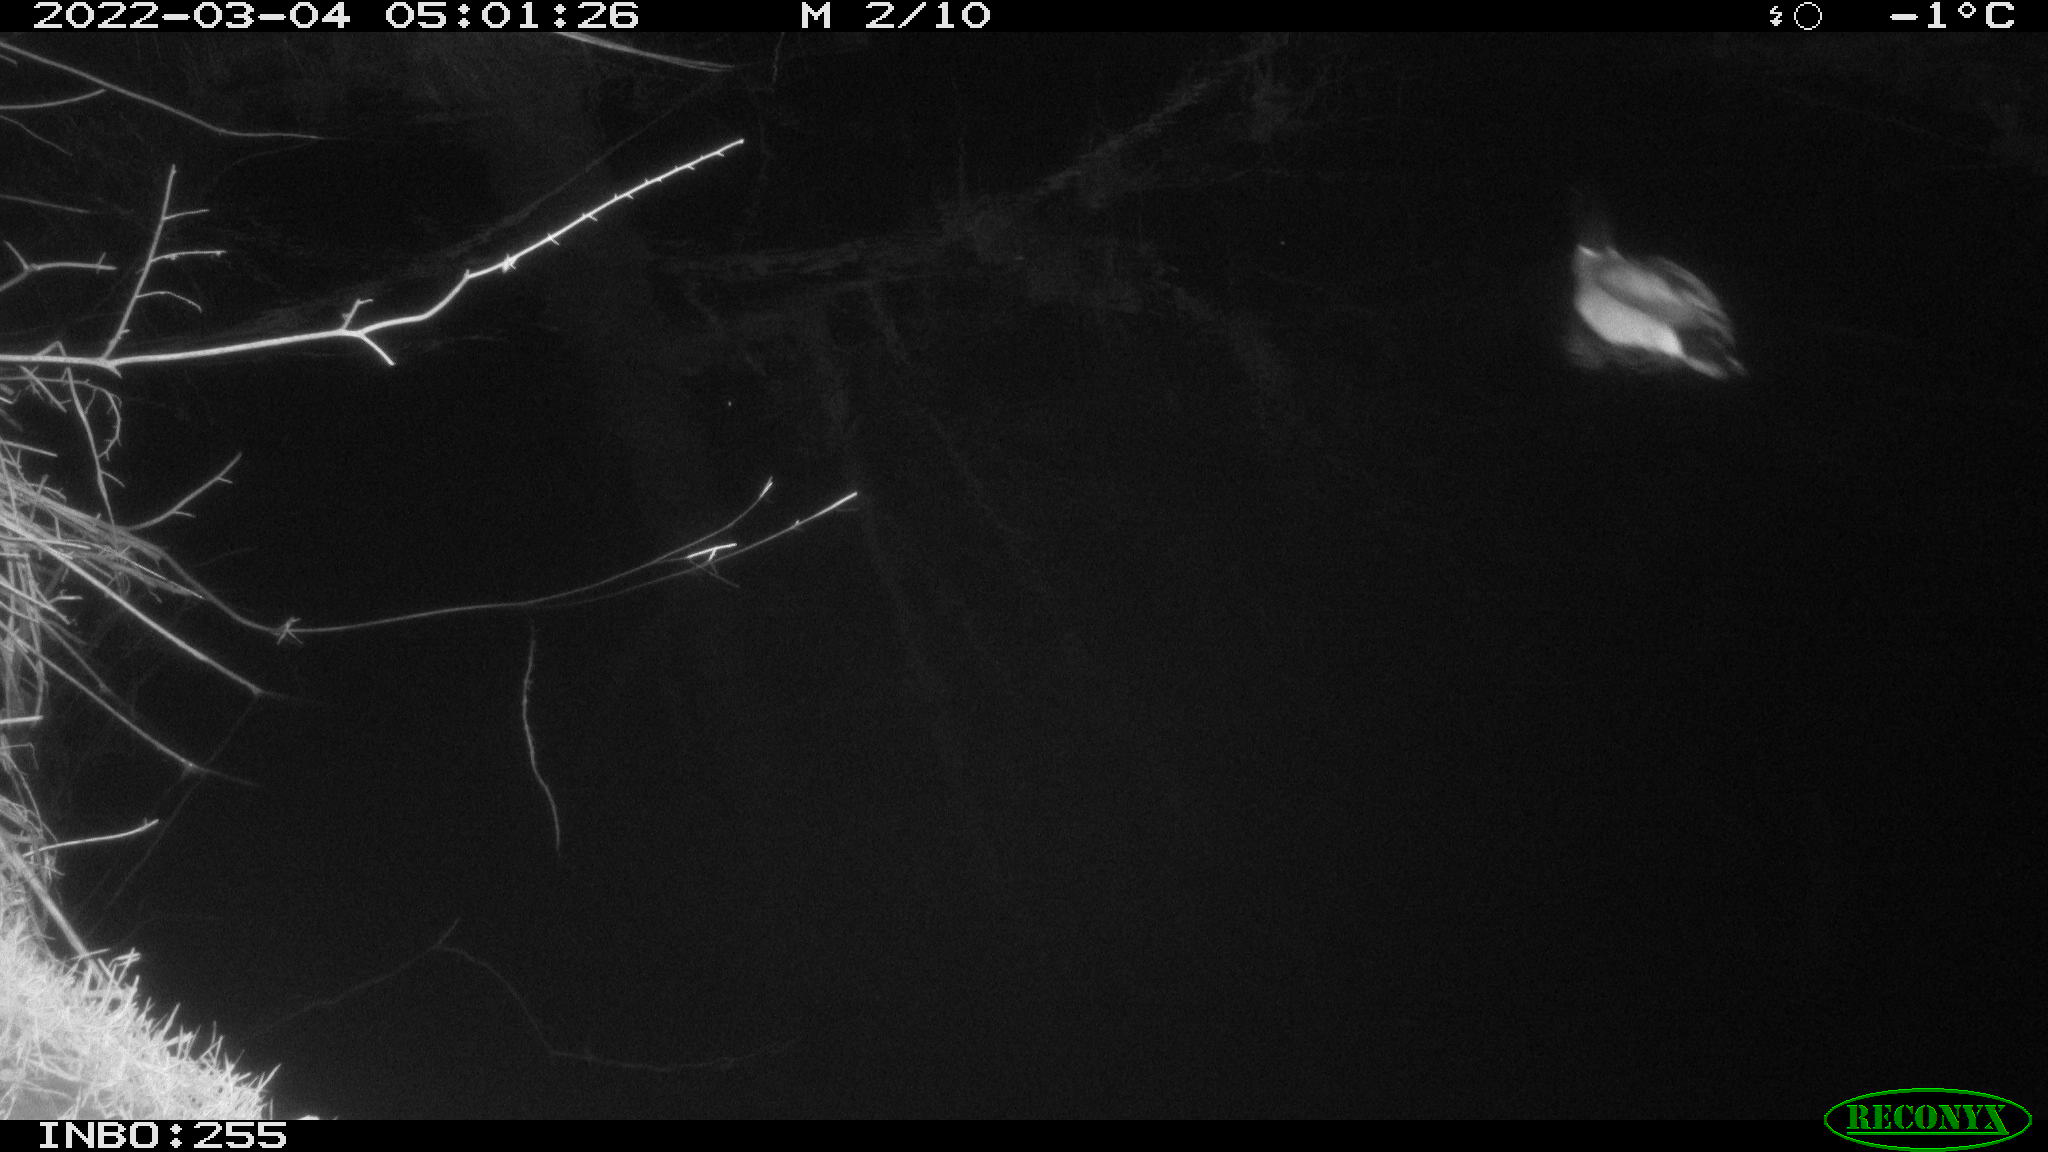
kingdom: Animalia
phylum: Chordata
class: Aves
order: Anseriformes
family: Anatidae
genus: Anas
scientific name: Anas platyrhynchos
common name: Mallard
